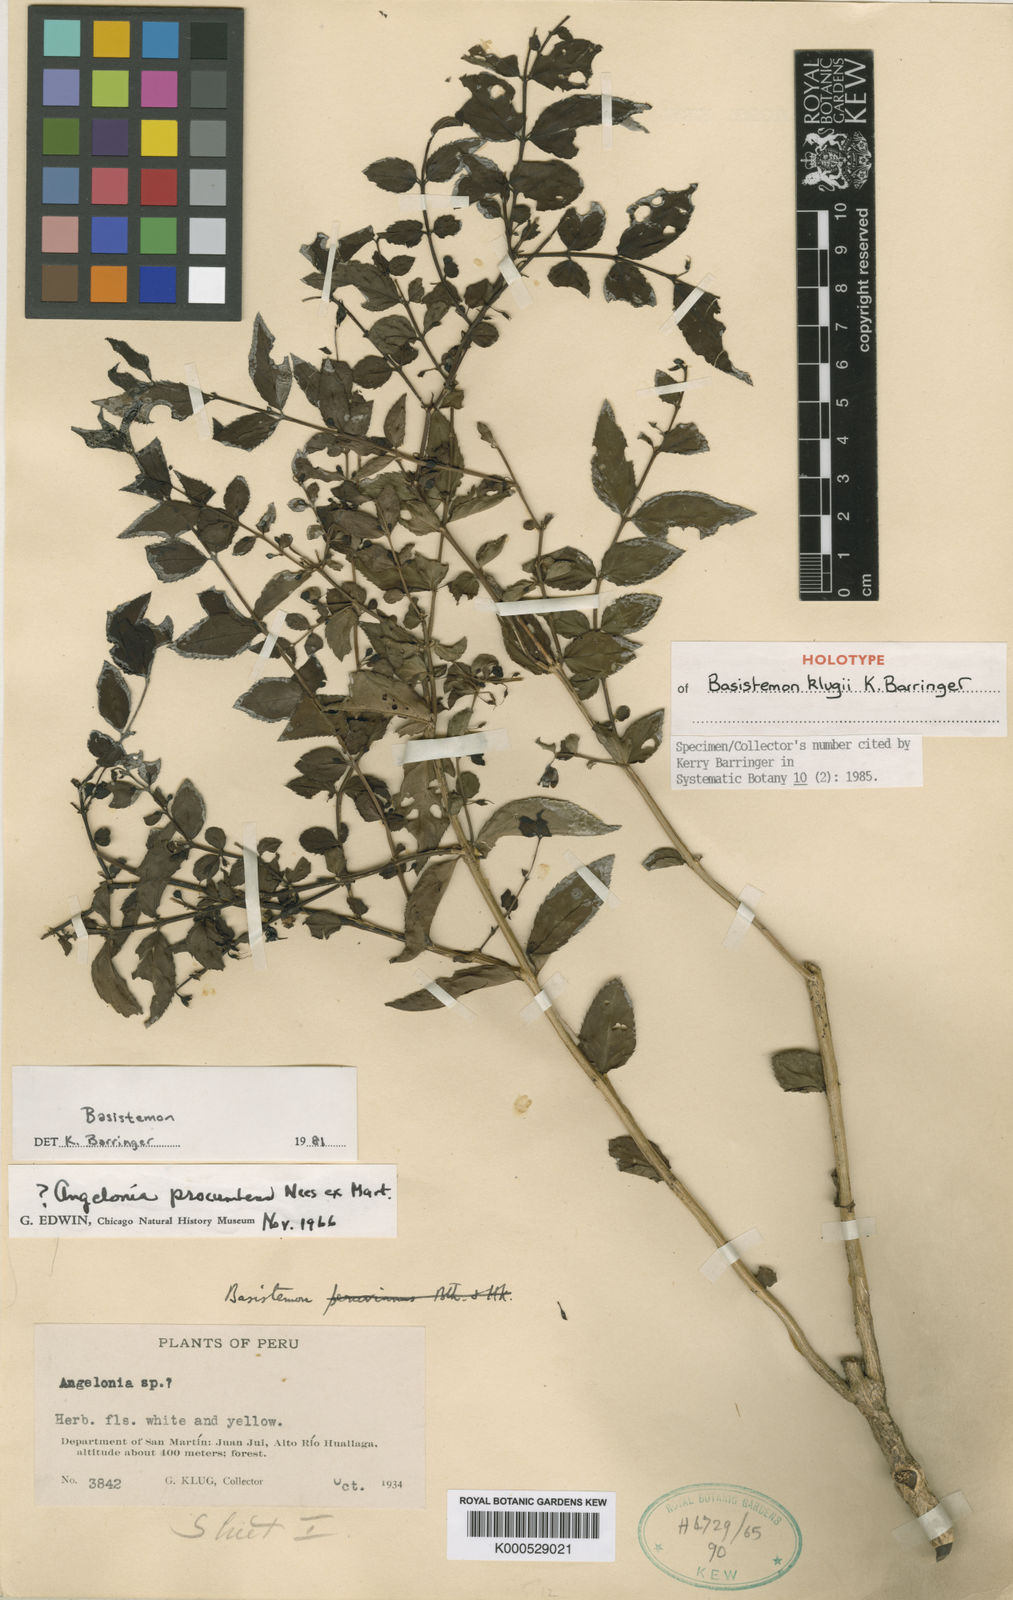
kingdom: Plantae
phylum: Tracheophyta
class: Magnoliopsida
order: Lamiales
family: Plantaginaceae
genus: Basistemon
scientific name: Basistemon klugii
